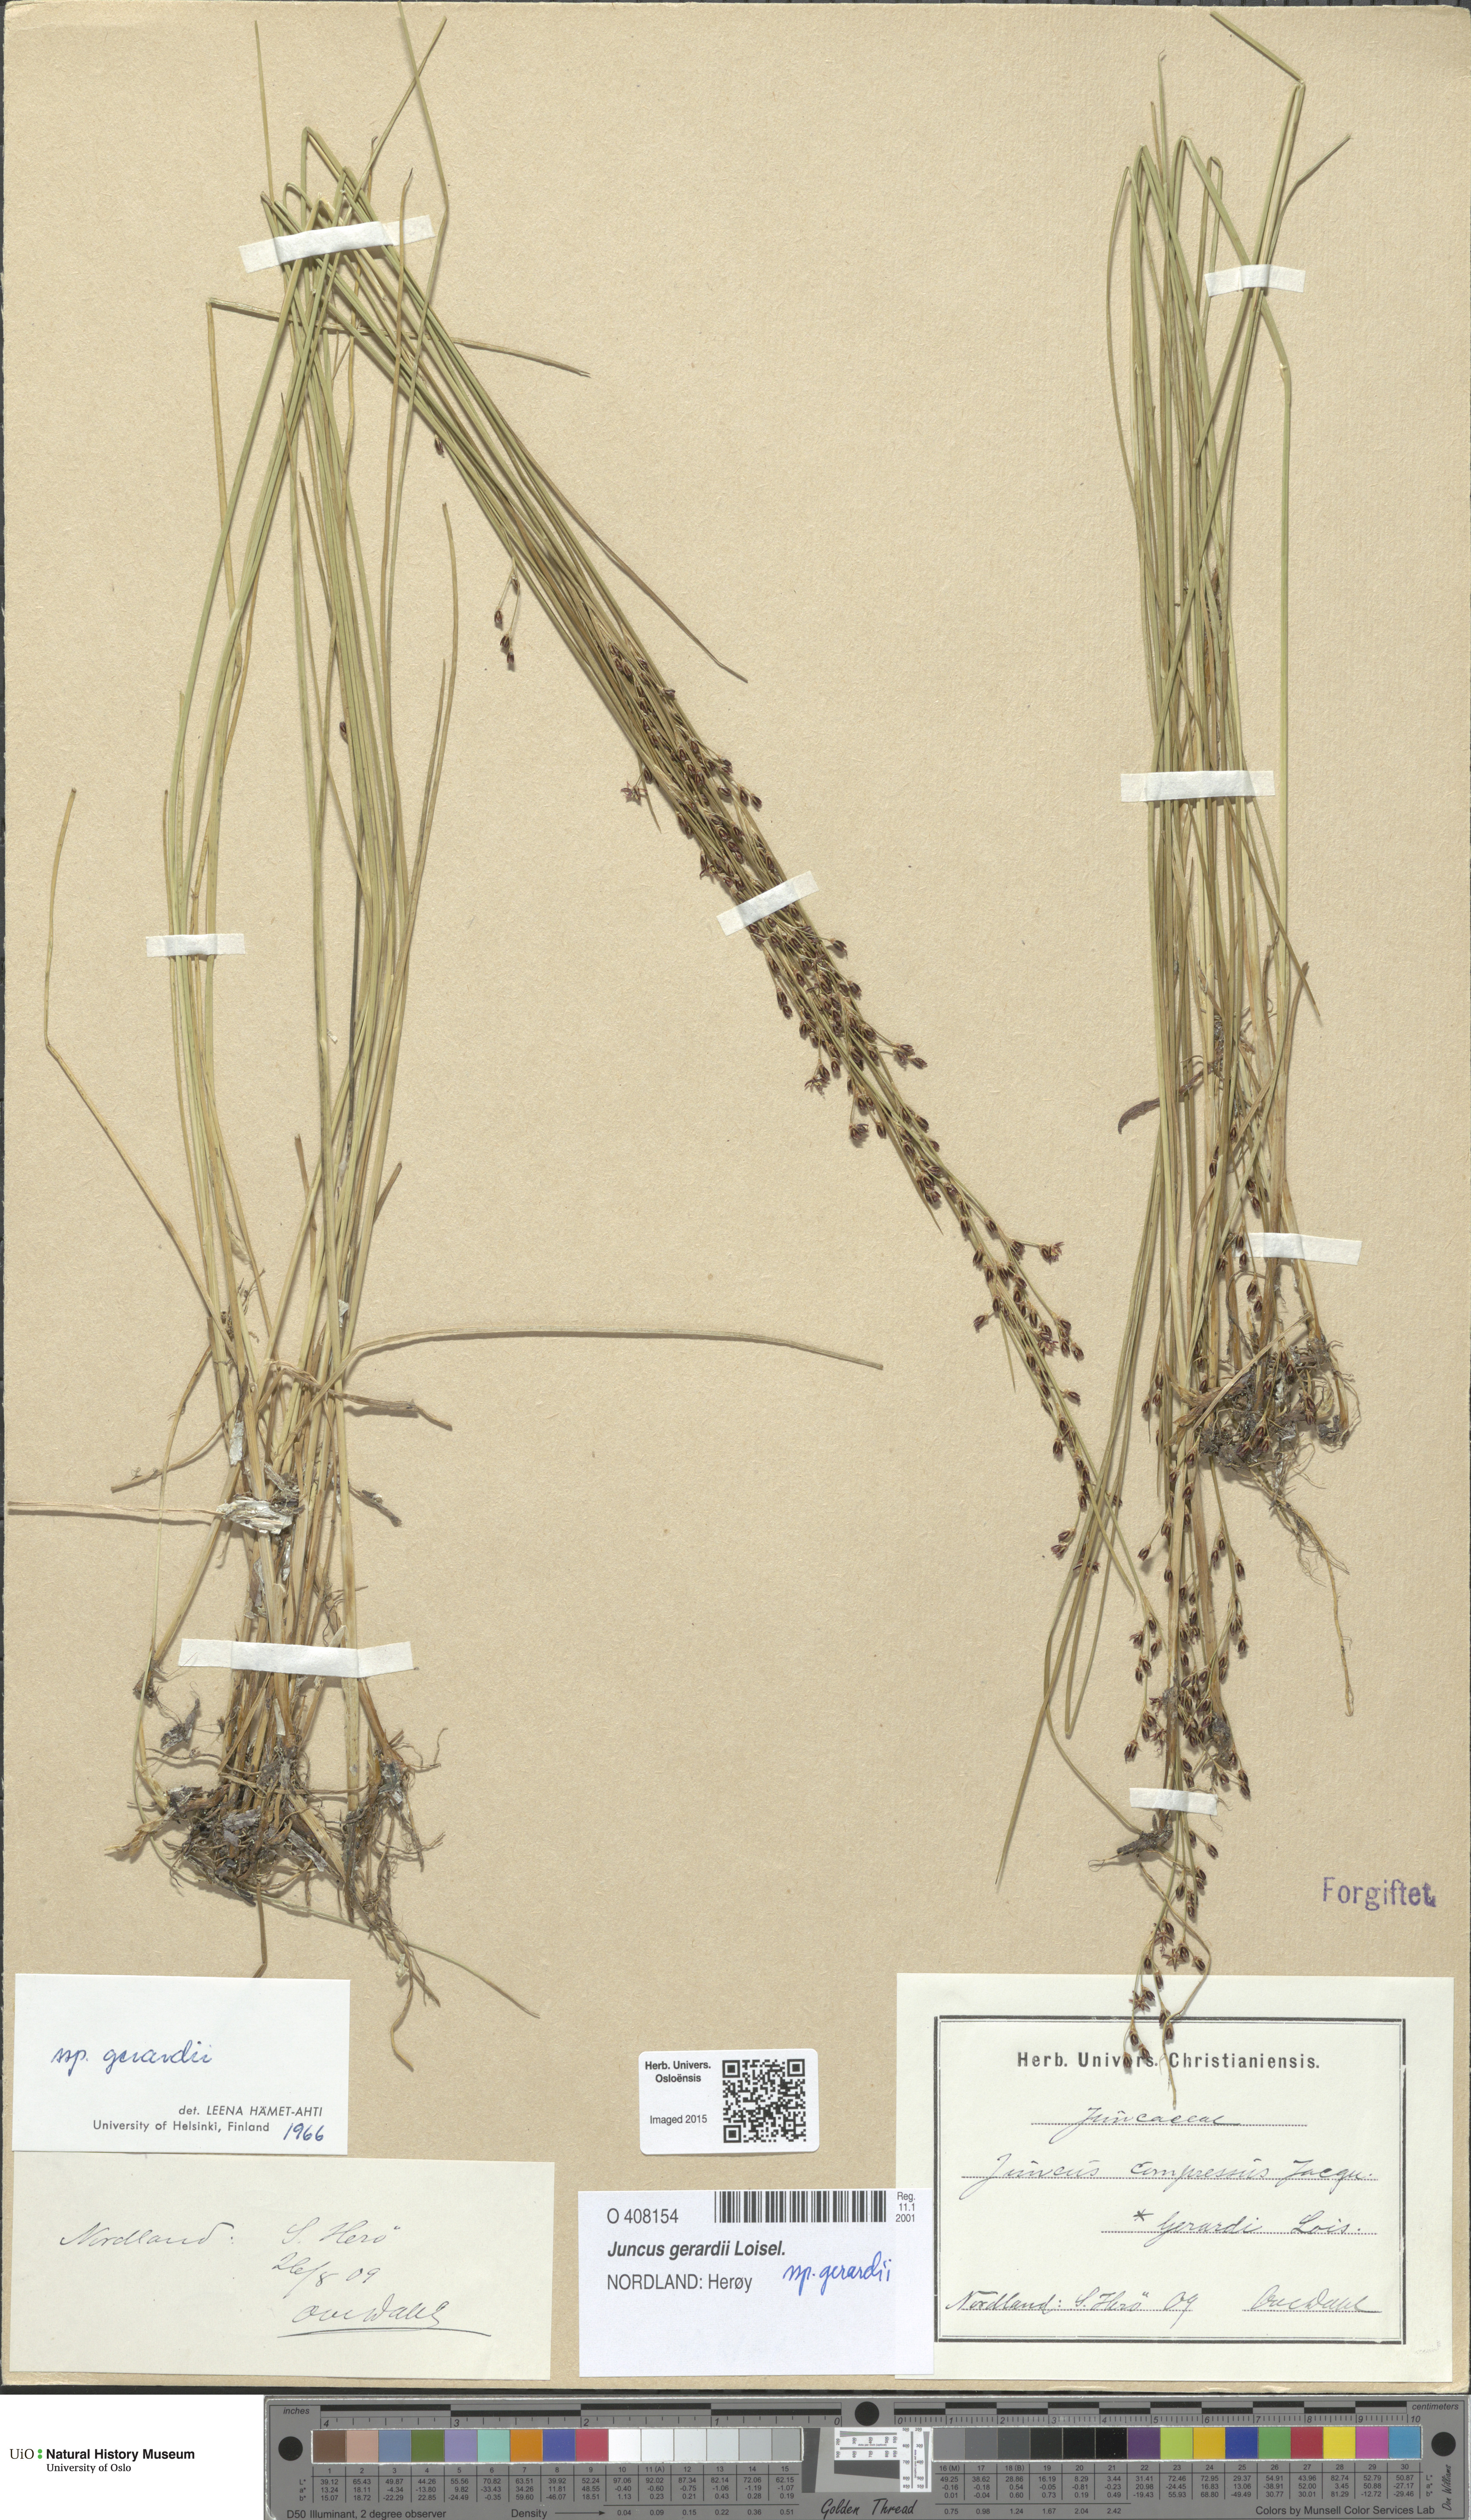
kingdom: Plantae
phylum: Tracheophyta
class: Liliopsida
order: Poales
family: Juncaceae
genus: Juncus
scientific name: Juncus gerardi
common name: Saltmarsh rush
